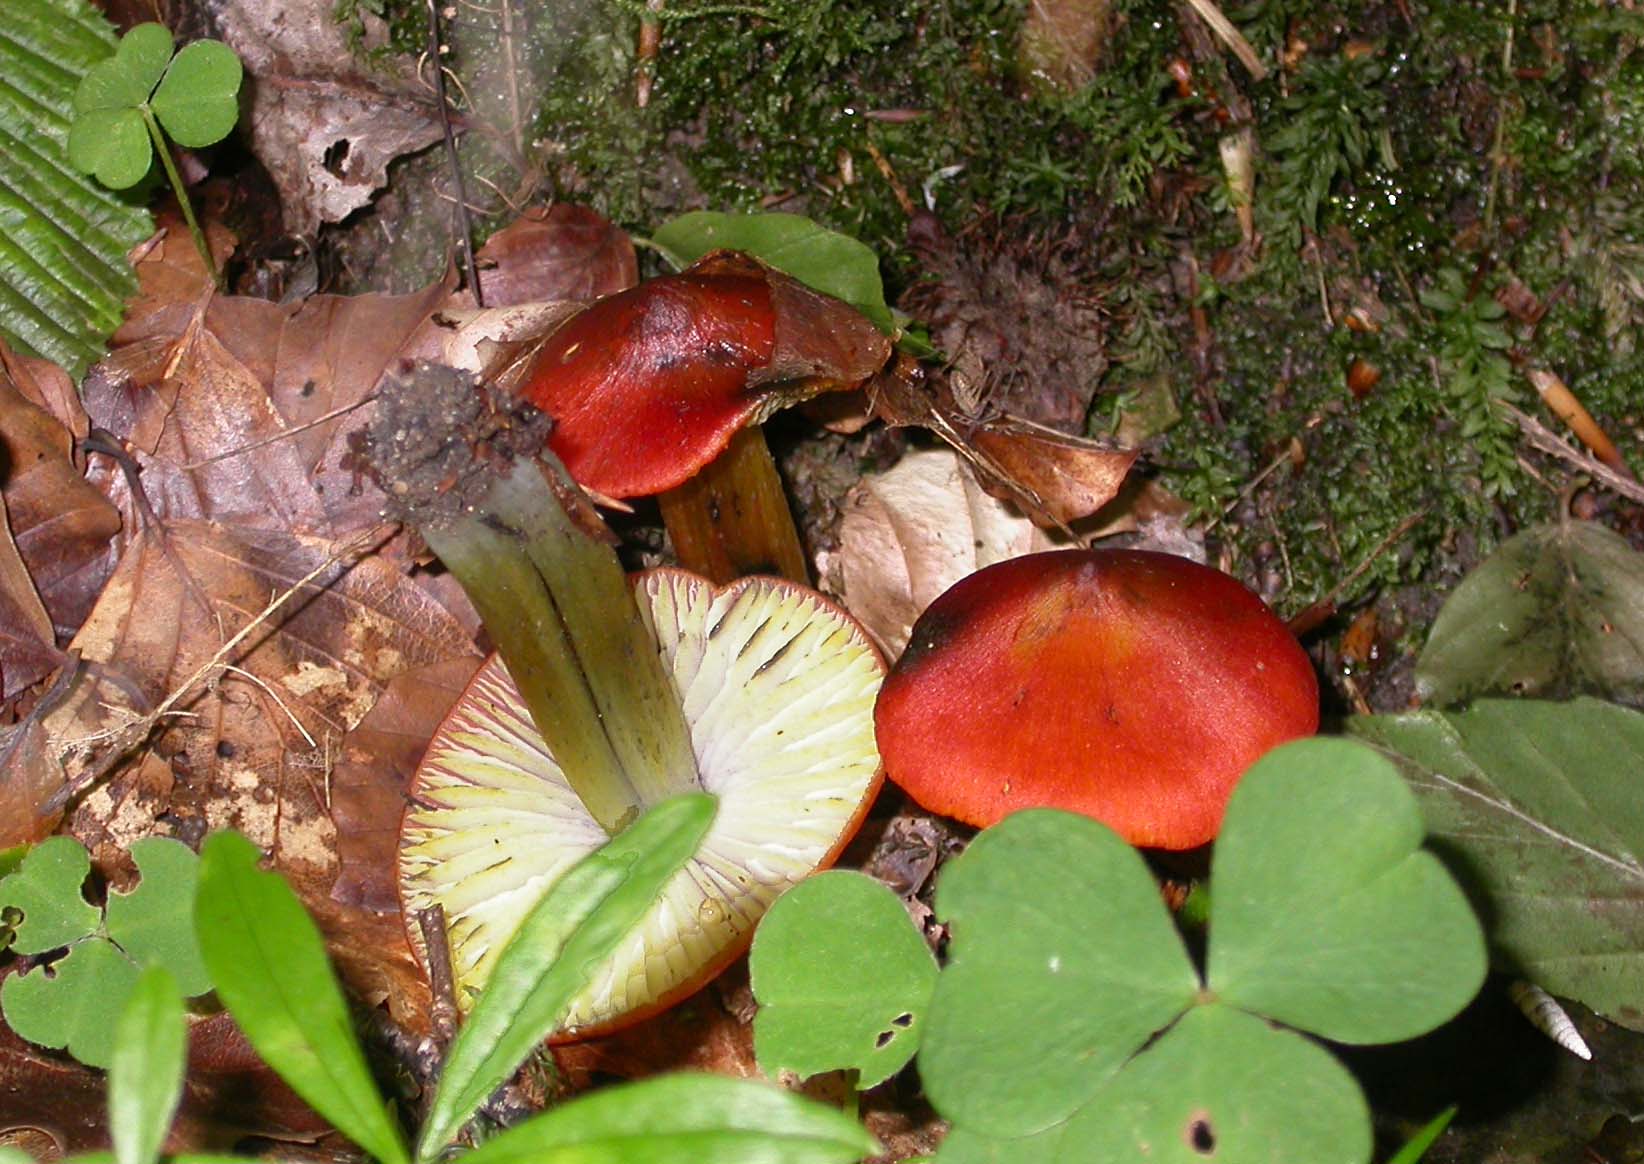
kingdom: Fungi
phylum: Basidiomycota
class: Agaricomycetes
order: Agaricales
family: Hygrophoraceae
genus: Hygrocybe
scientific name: Hygrocybe conica
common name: kegle-vokshat
